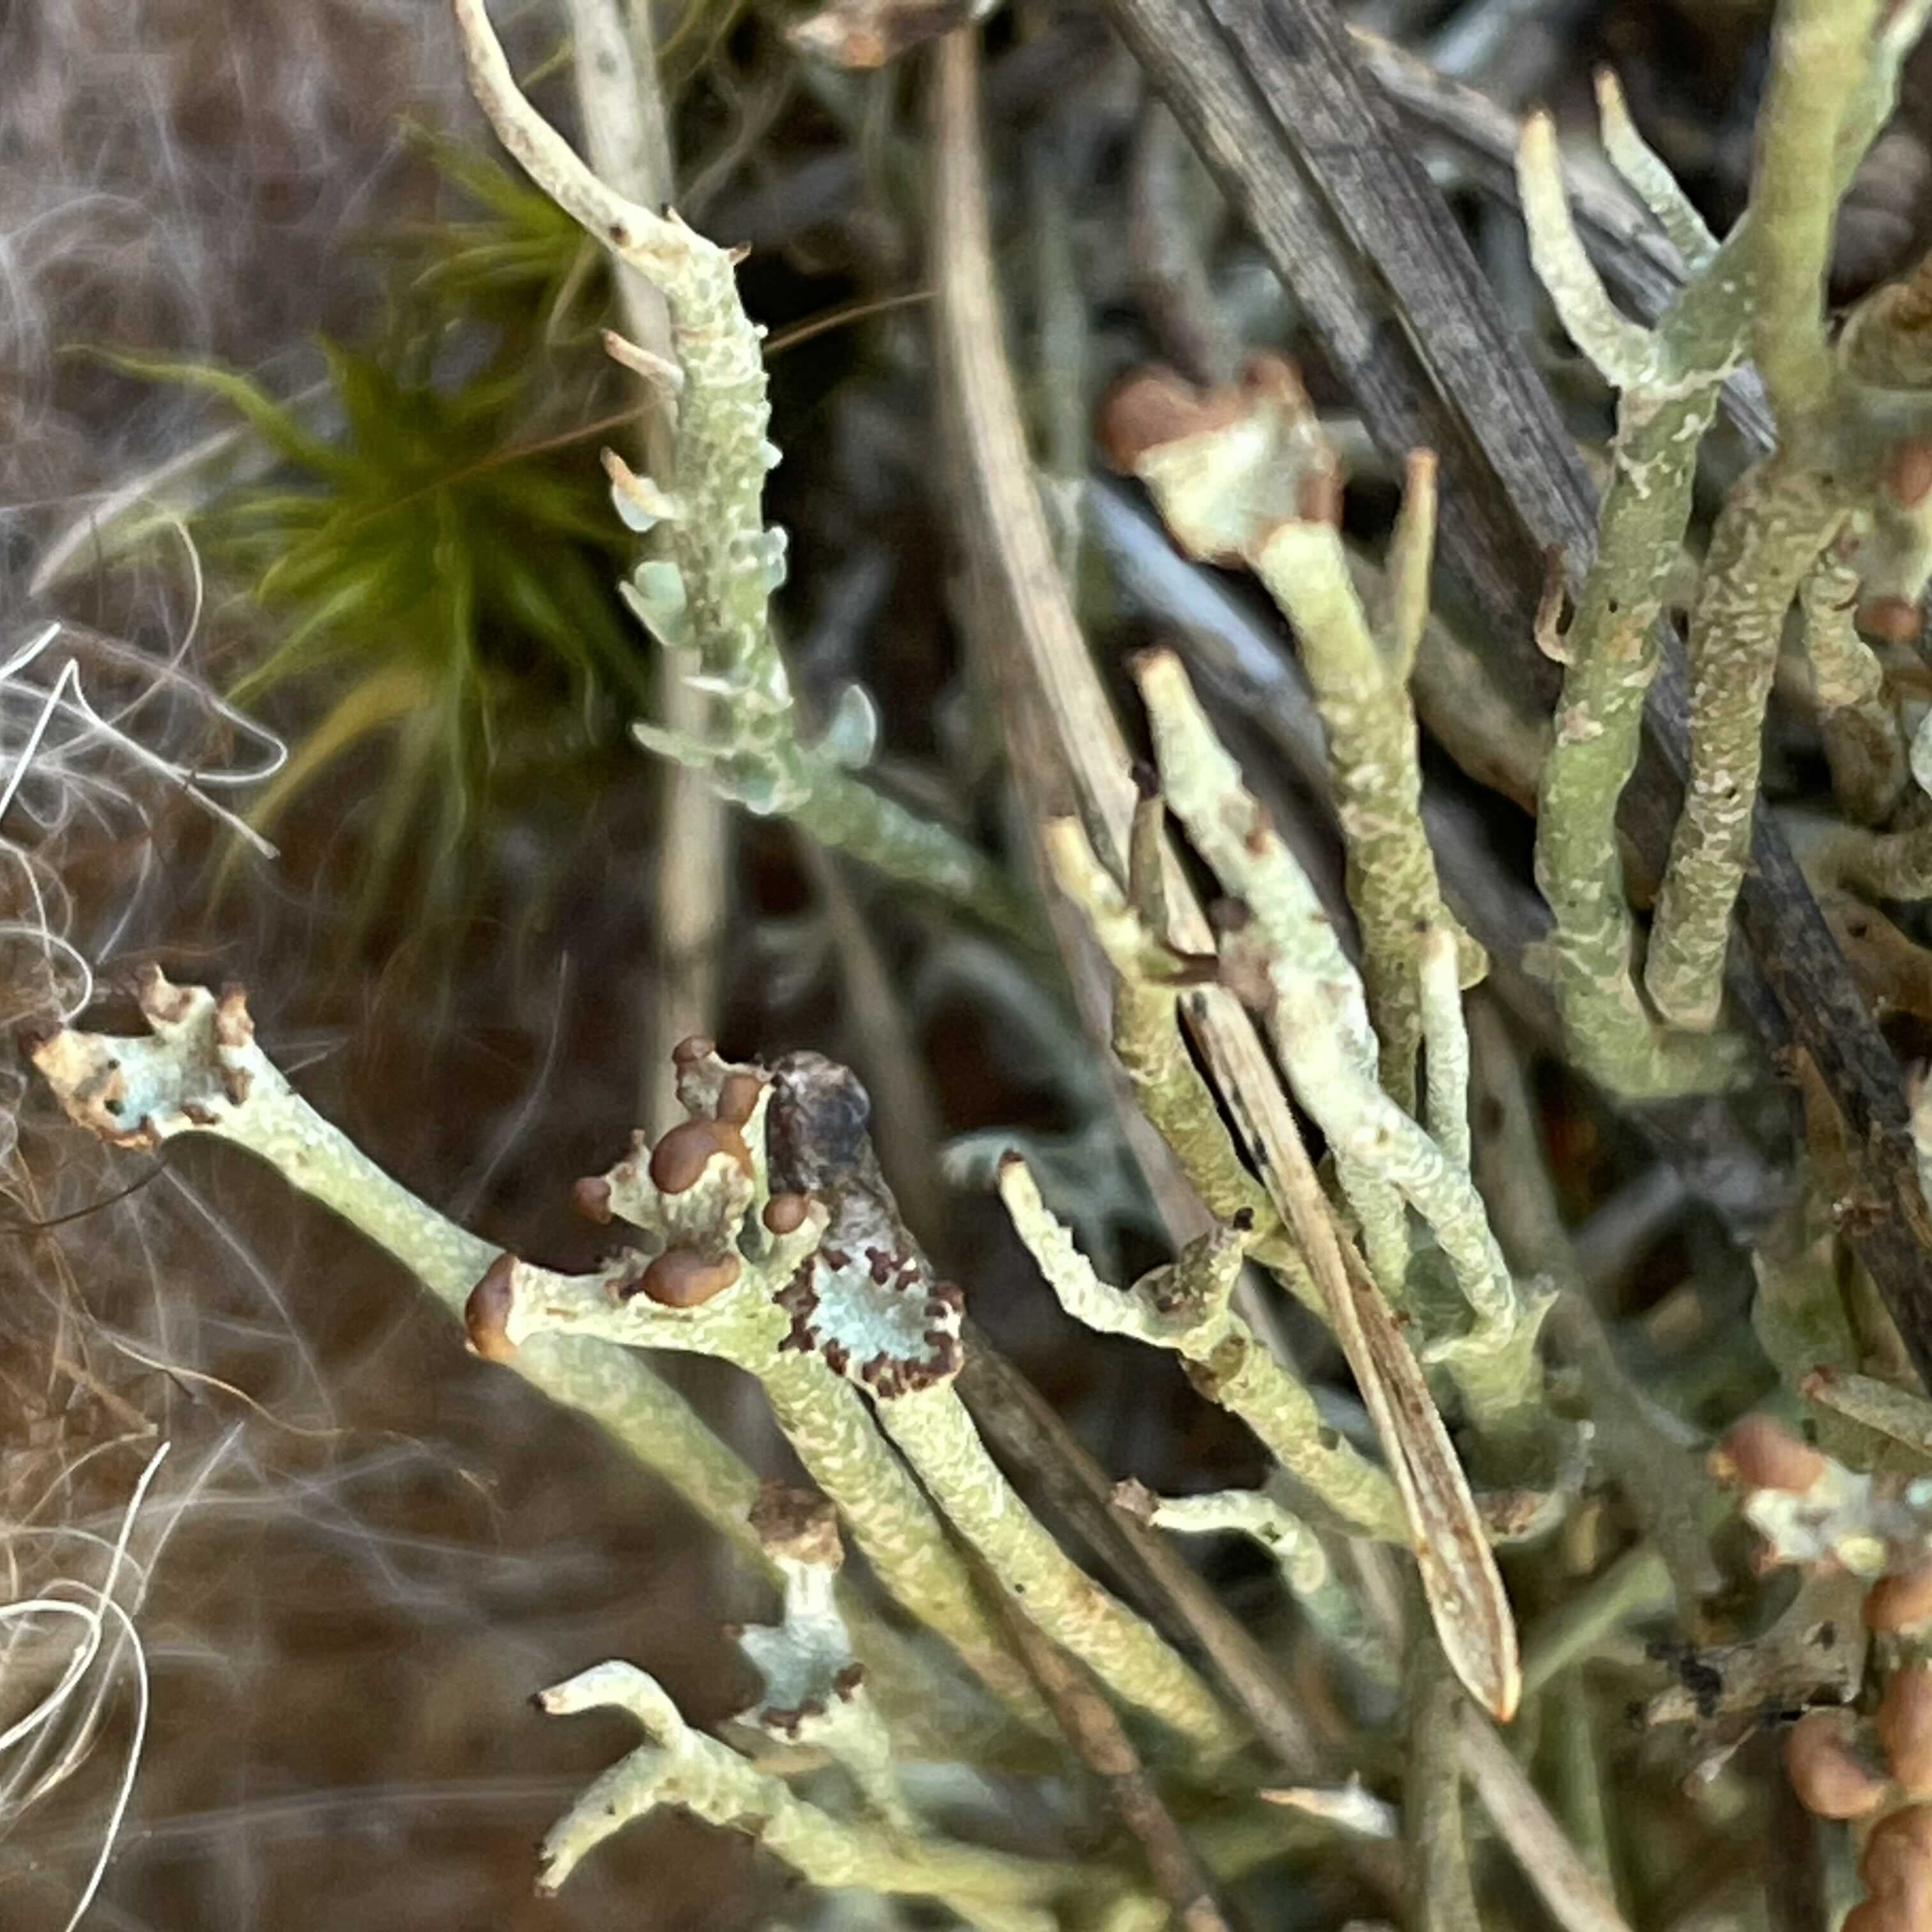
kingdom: Fungi
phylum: Ascomycota
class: Lecanoromycetes
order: Lecanorales
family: Cladoniaceae
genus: Cladonia
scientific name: Cladonia gracilis
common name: slank bægerlav
